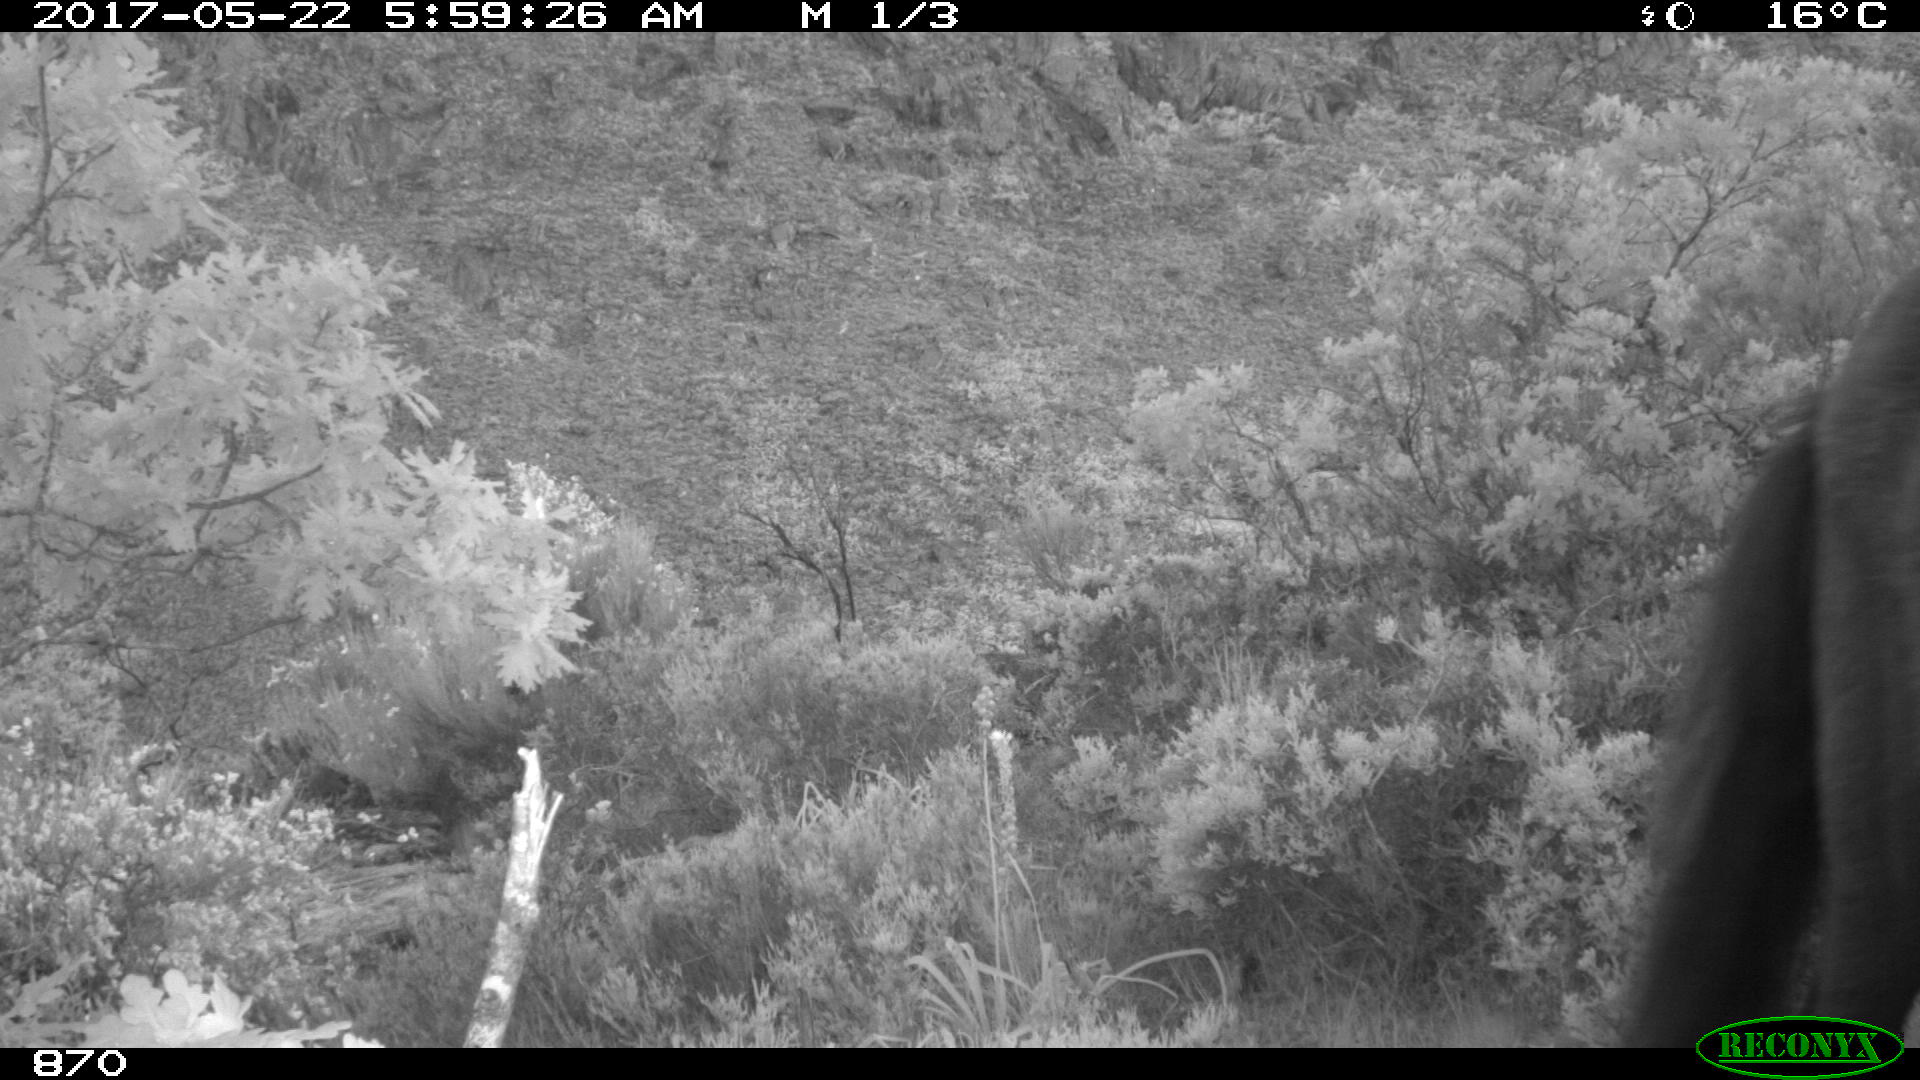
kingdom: Animalia
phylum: Chordata
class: Mammalia
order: Perissodactyla
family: Equidae
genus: Equus
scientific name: Equus caballus
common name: Horse
